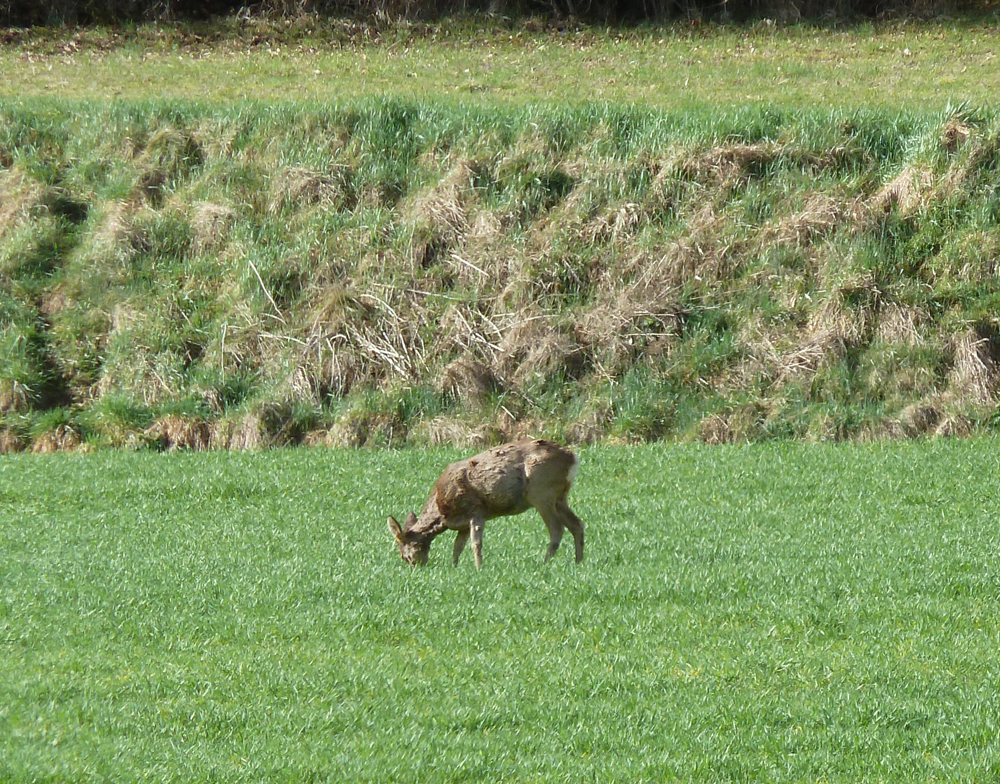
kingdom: Animalia
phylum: Chordata
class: Mammalia
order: Artiodactyla
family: Cervidae
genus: Capreolus
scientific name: Capreolus capreolus
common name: Western roe deer
